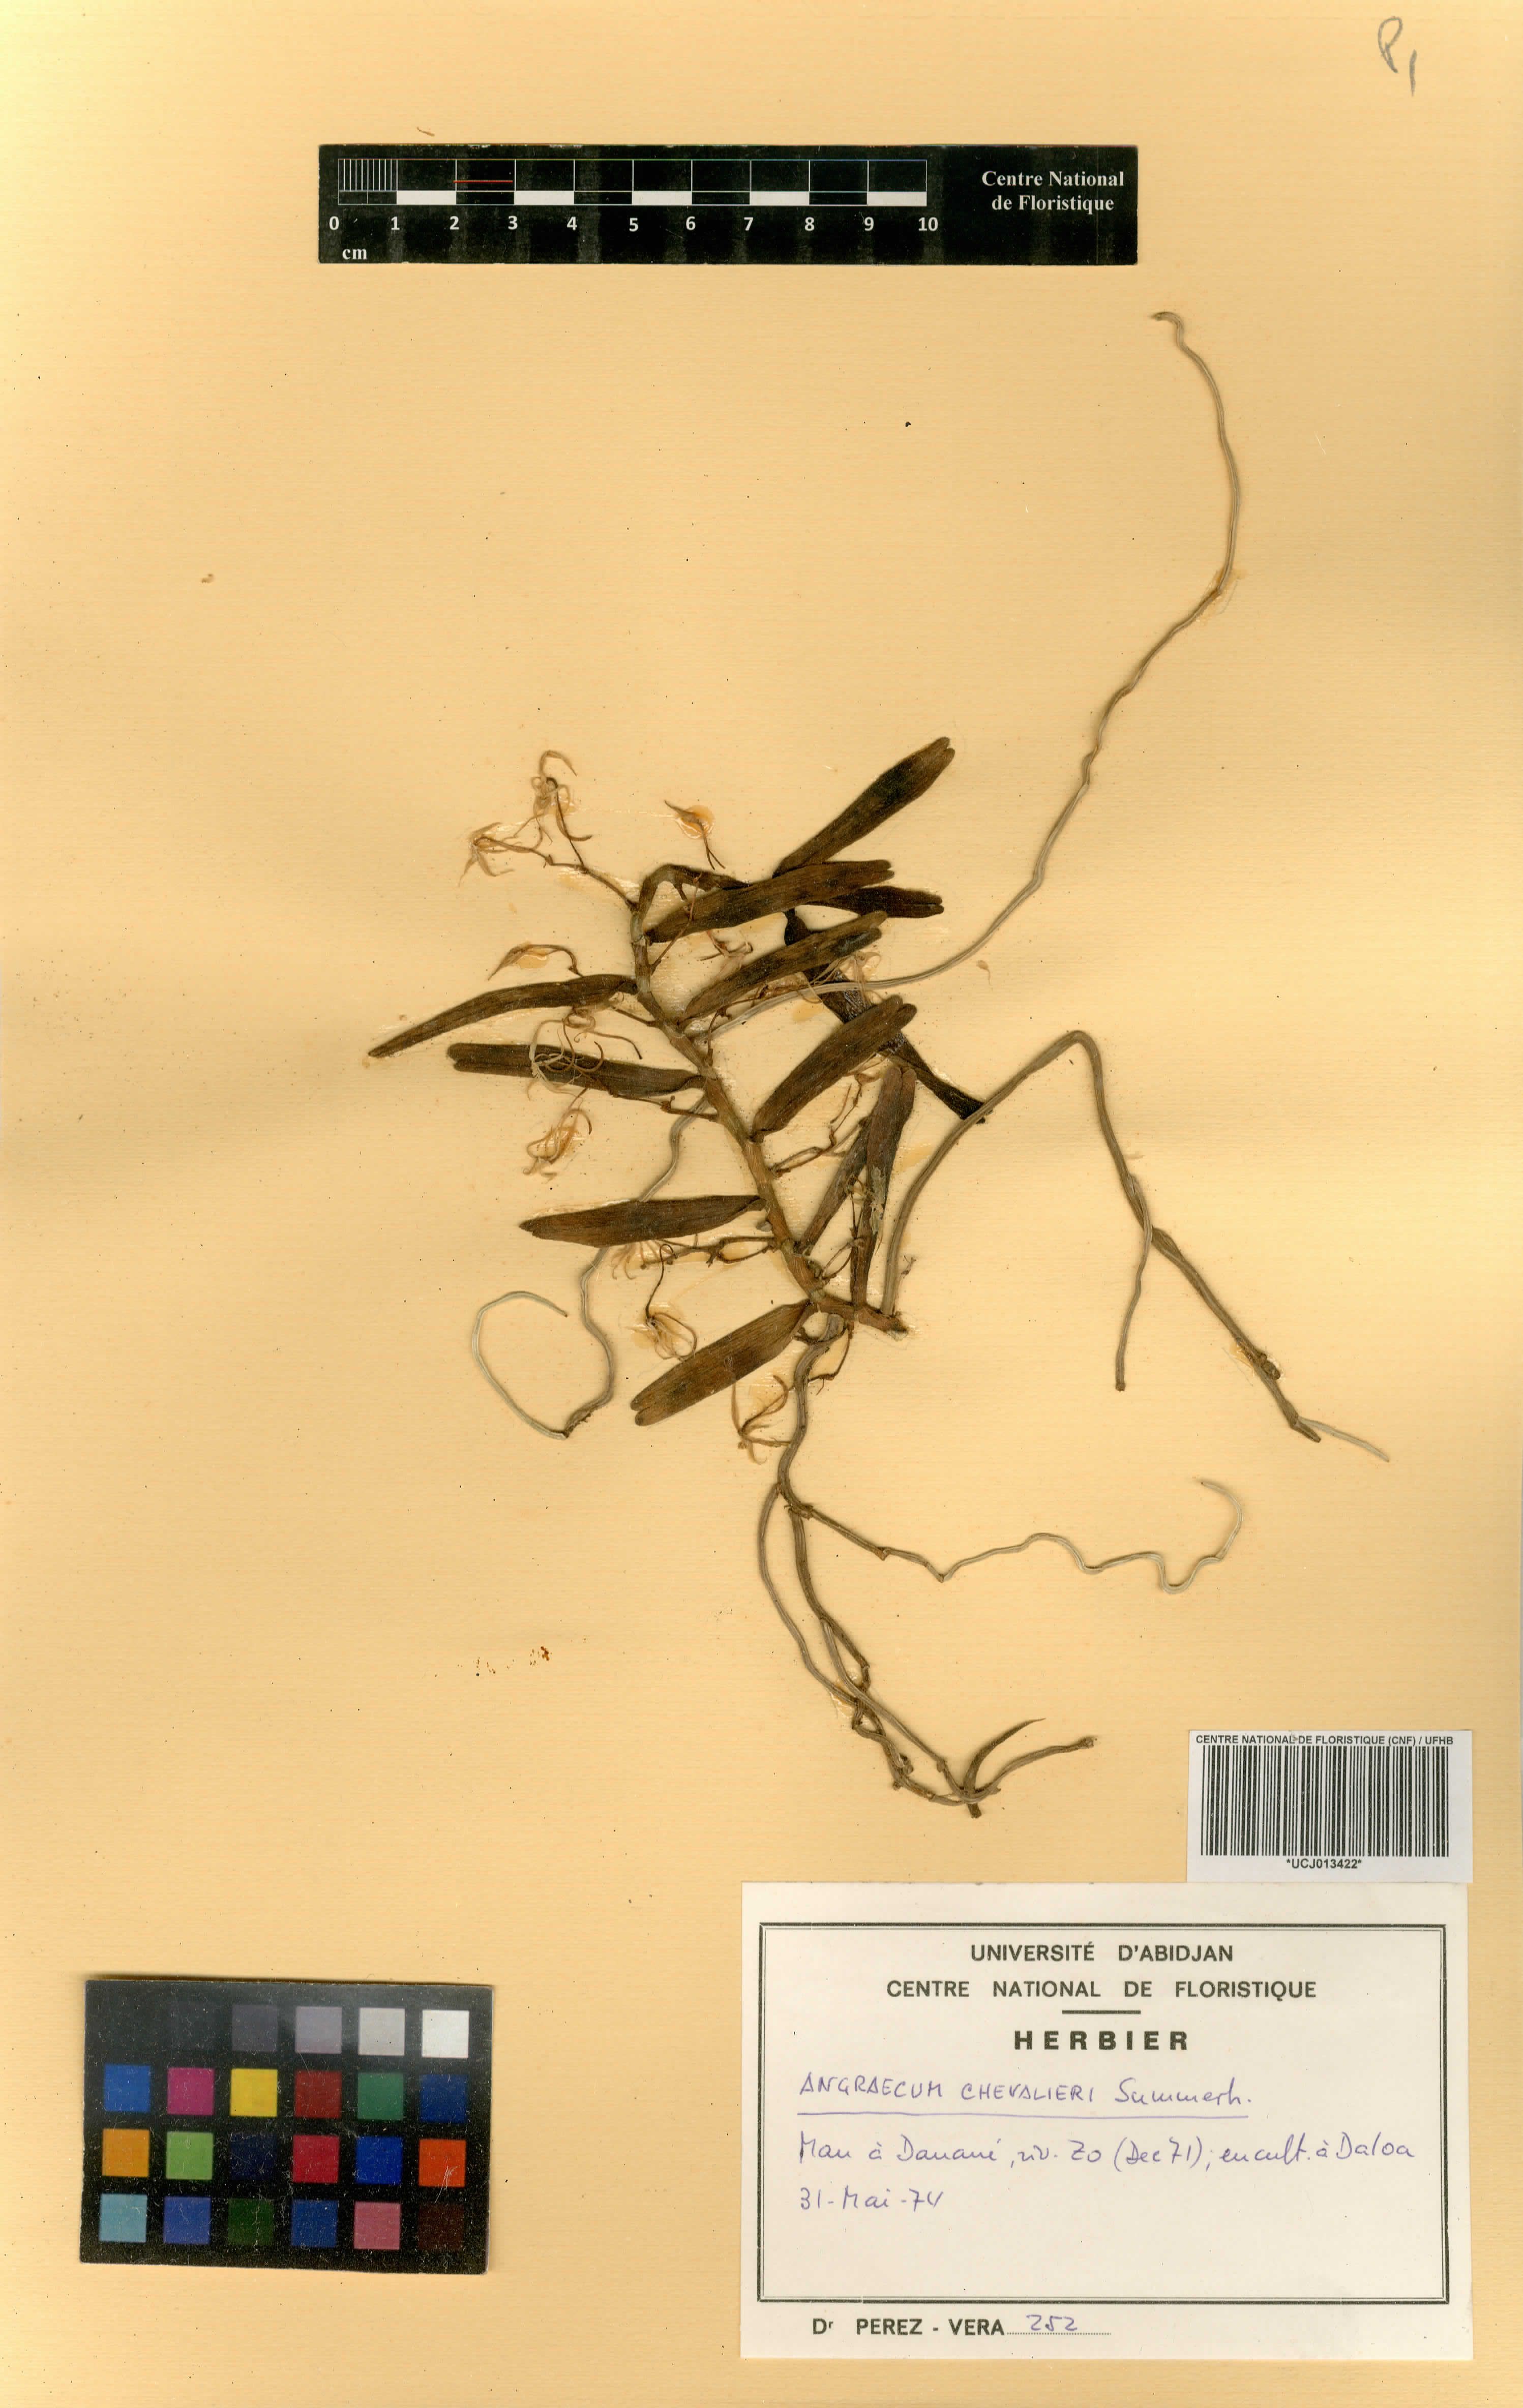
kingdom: Plantae
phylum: Tracheophyta
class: Liliopsida
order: Asparagales
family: Orchidaceae
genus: Angraecum
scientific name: Angraecum moandense
